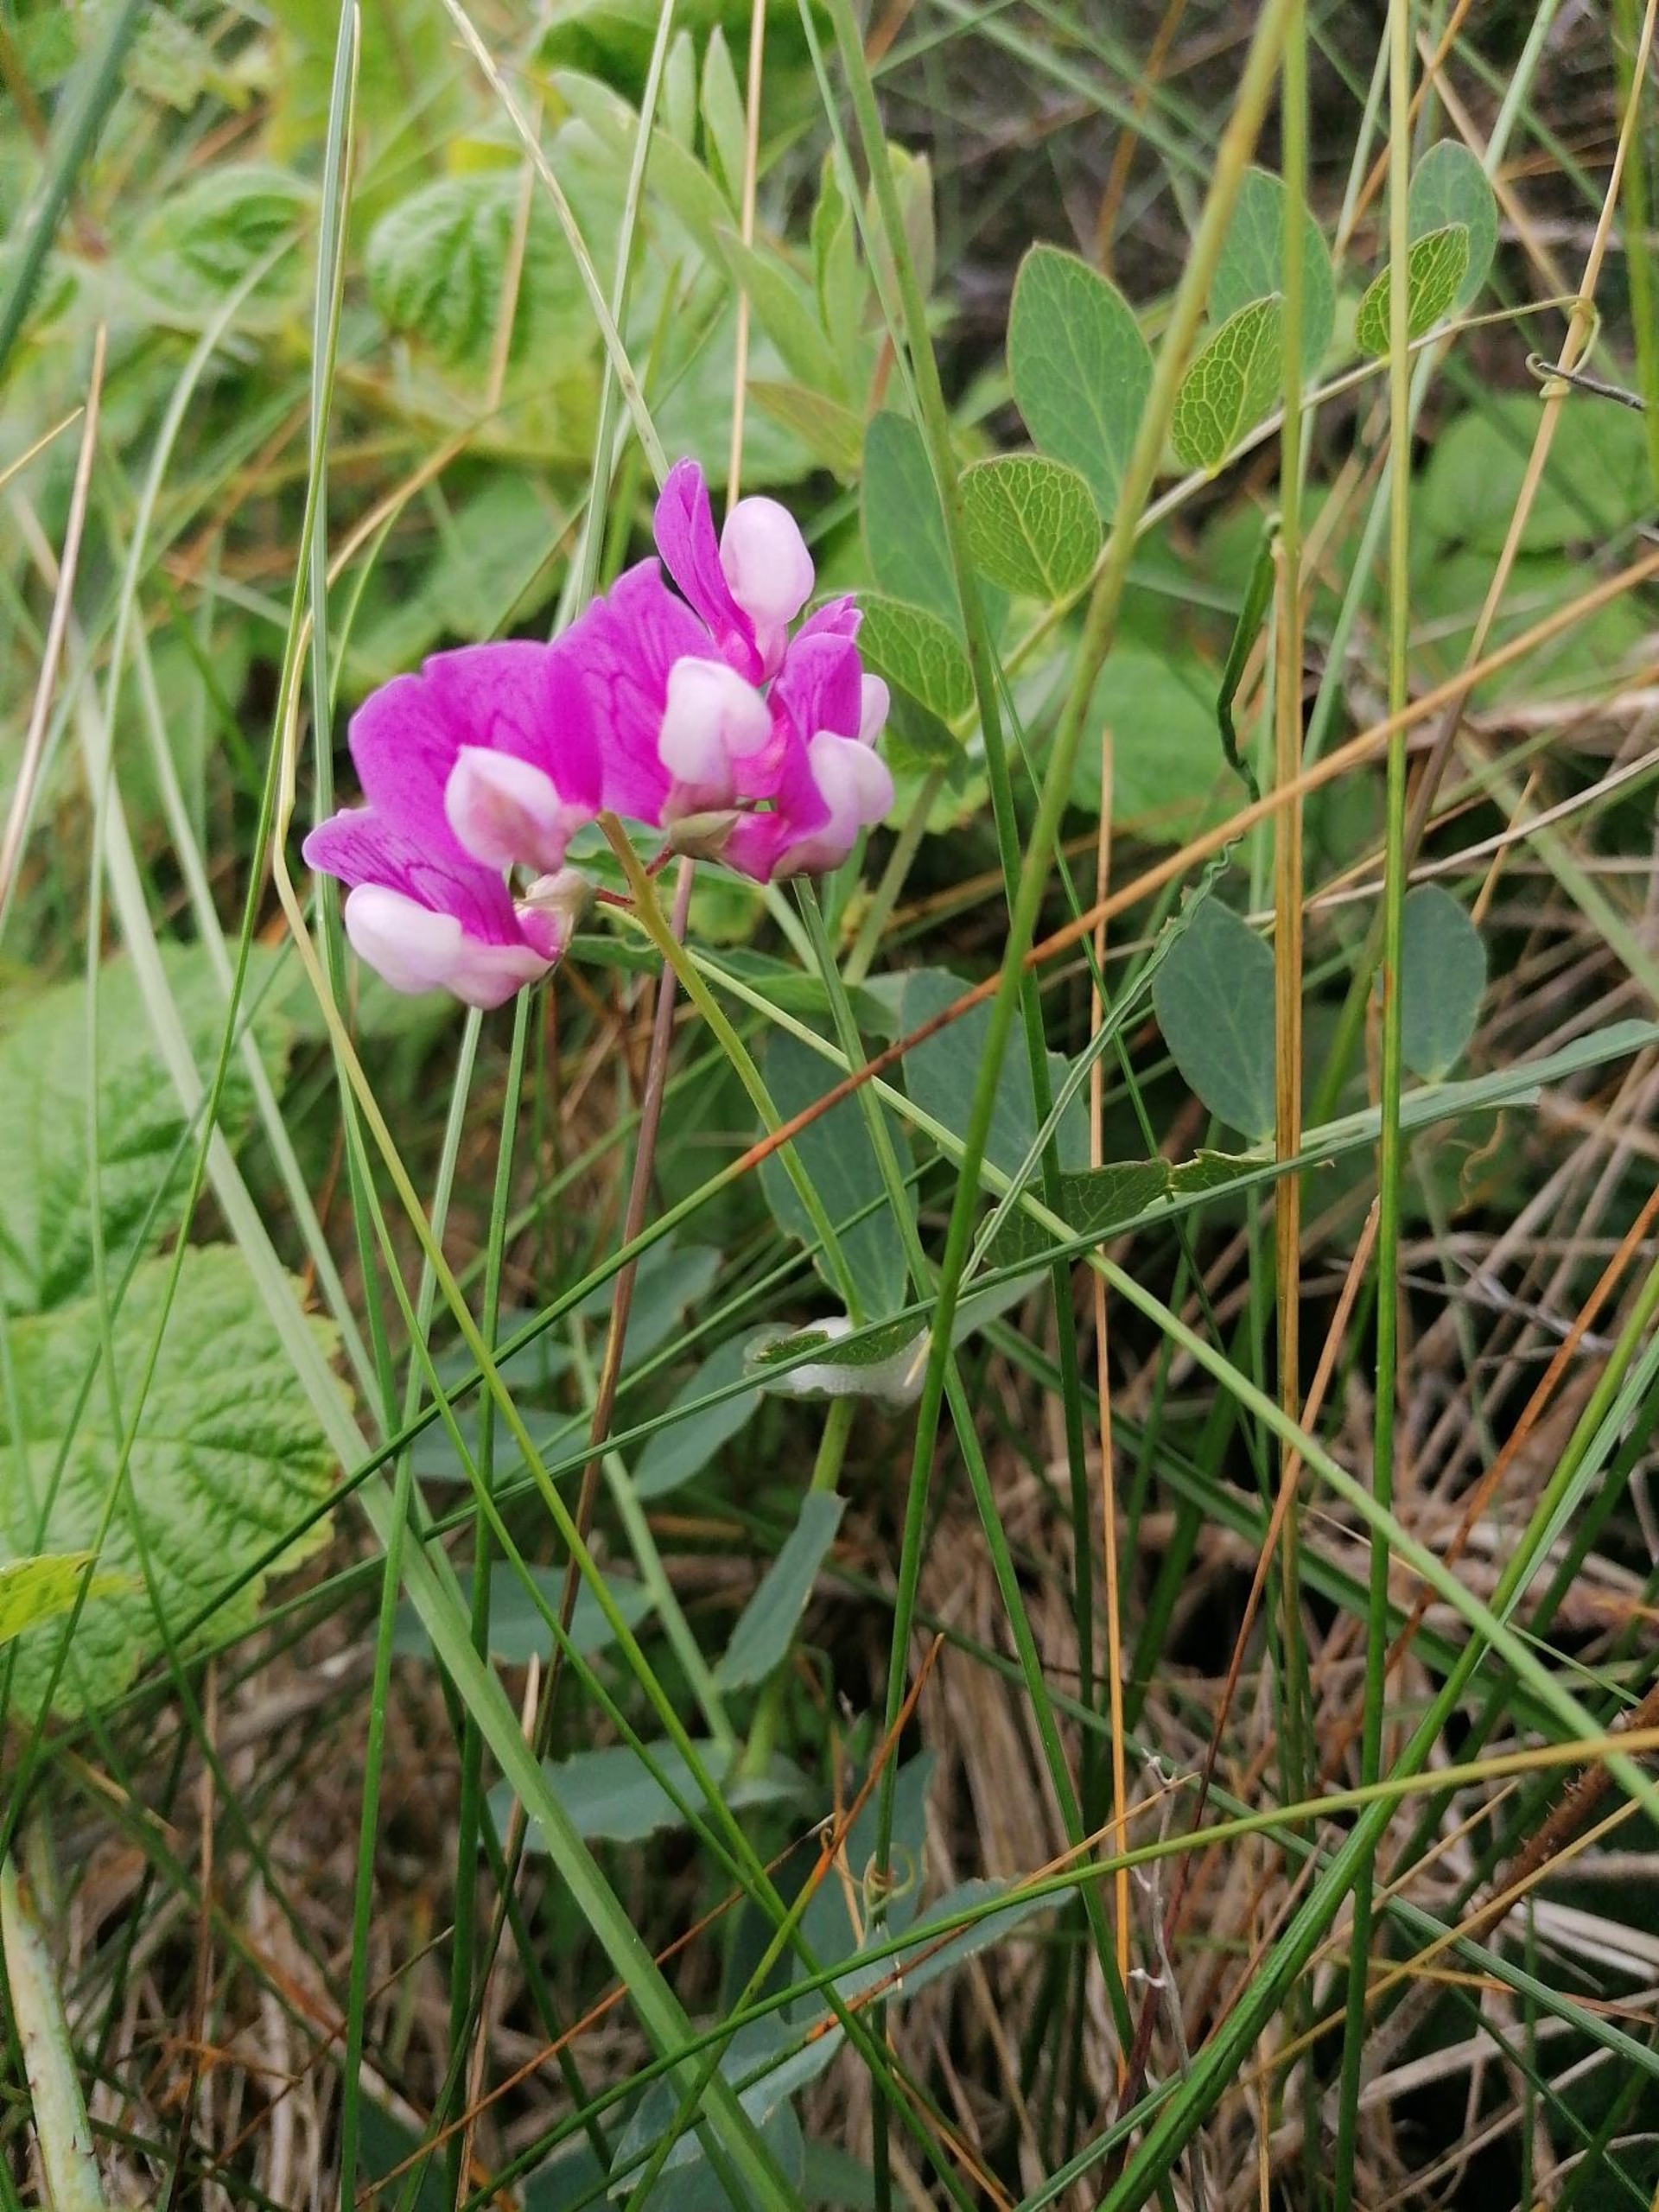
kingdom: Plantae
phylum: Tracheophyta
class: Magnoliopsida
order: Fabales
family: Fabaceae
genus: Lathyrus
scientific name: Lathyrus japonicus
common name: Strand-fladbælg
